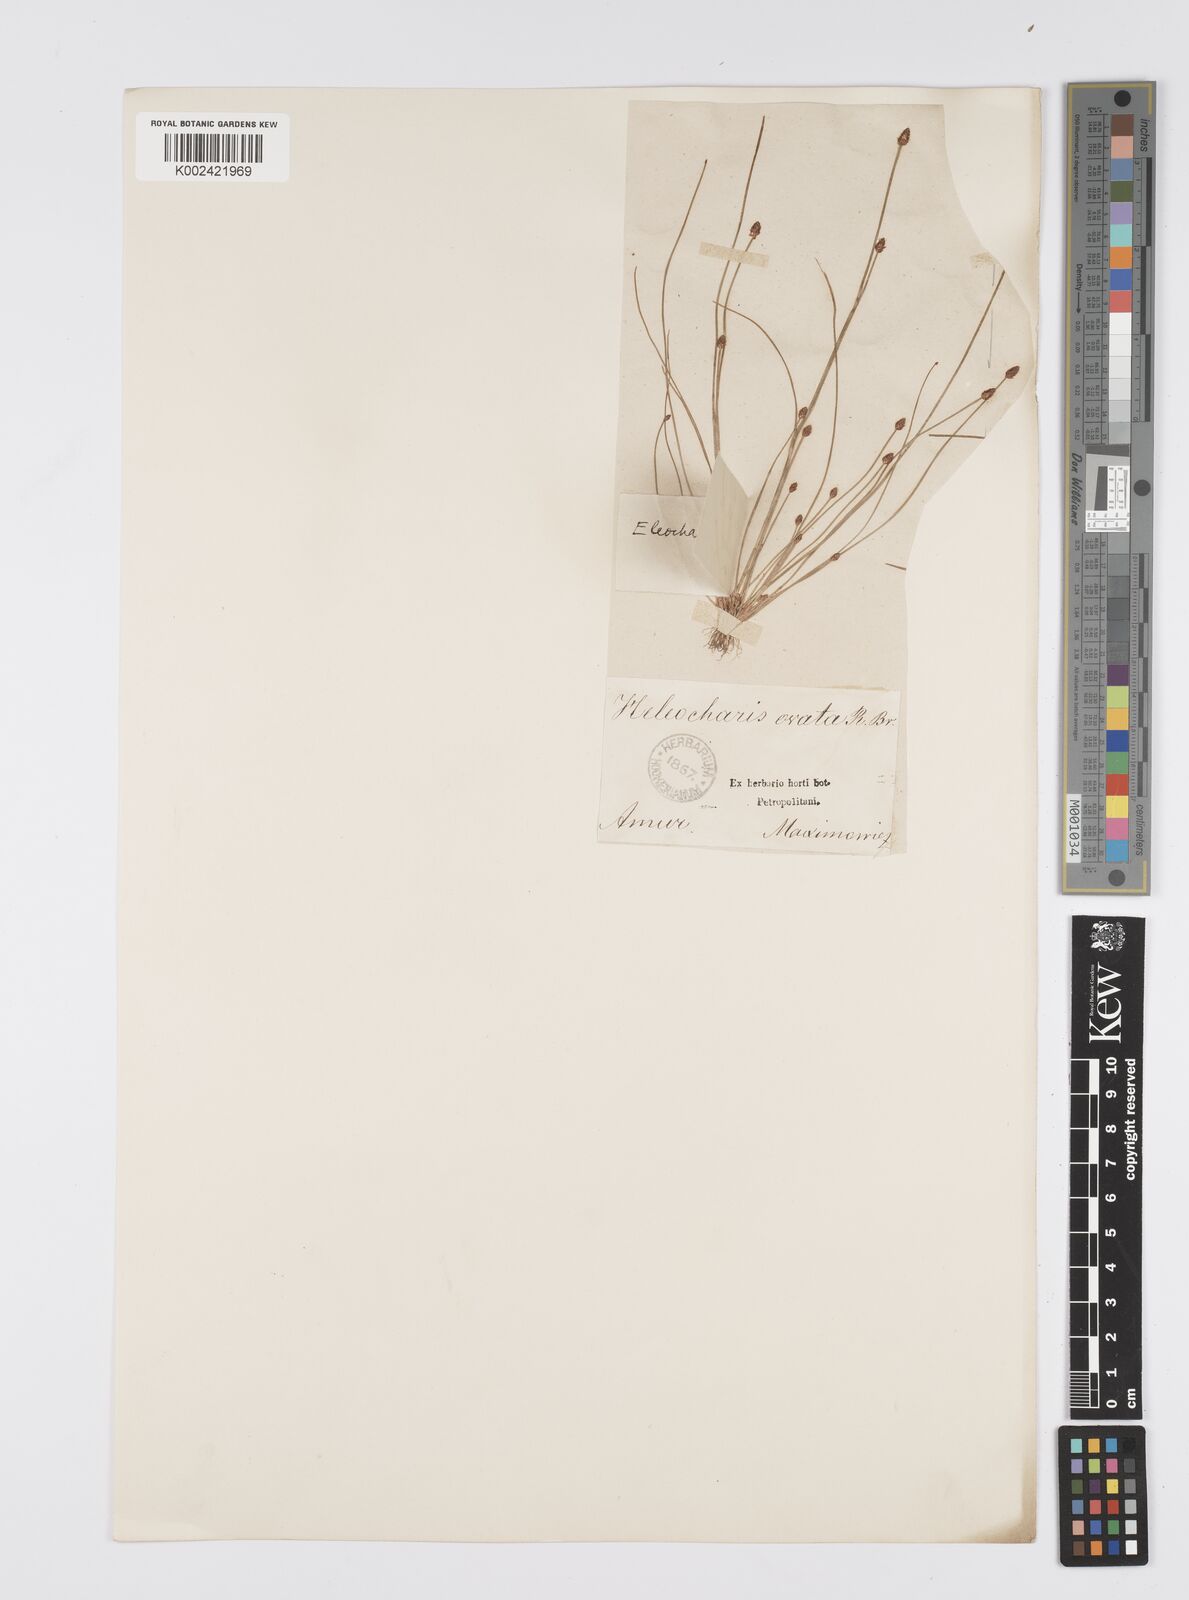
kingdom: Plantae
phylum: Tracheophyta
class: Liliopsida
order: Poales
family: Cyperaceae
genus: Eleocharis
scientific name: Eleocharis ovata
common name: Oval spike-rush
